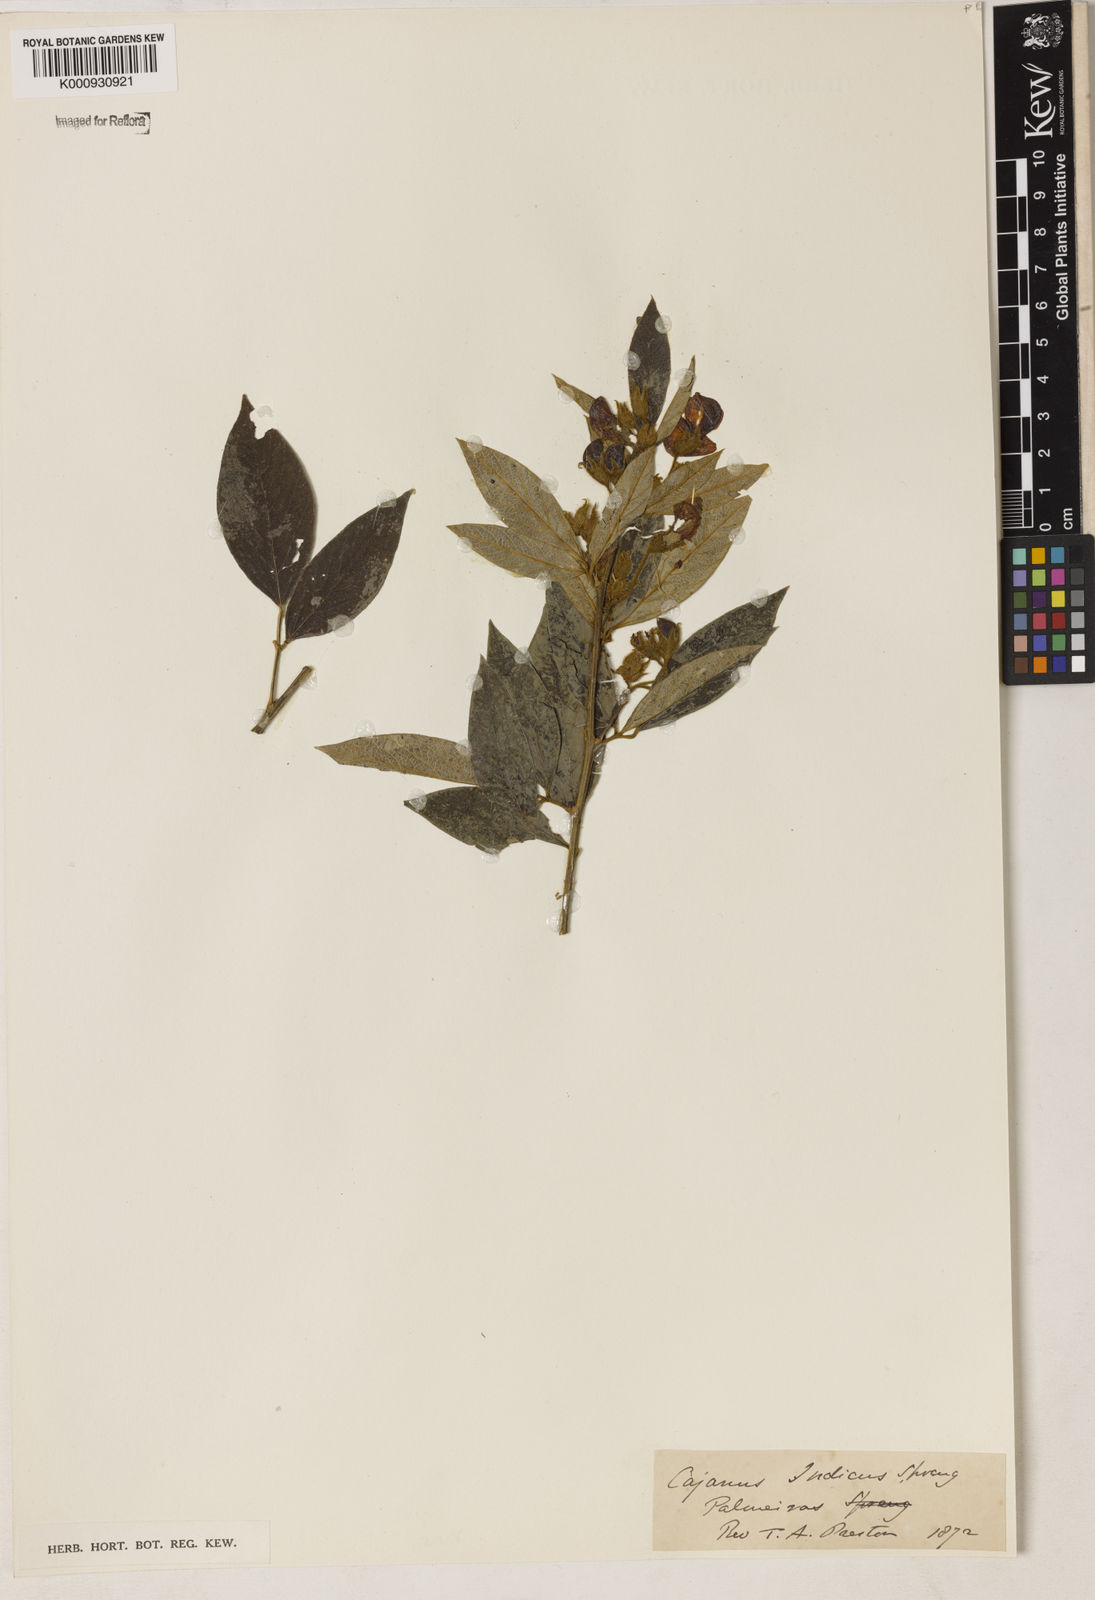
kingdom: Plantae
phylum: Tracheophyta
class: Magnoliopsida
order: Fabales
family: Fabaceae
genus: Cajanus
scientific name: Cajanus
